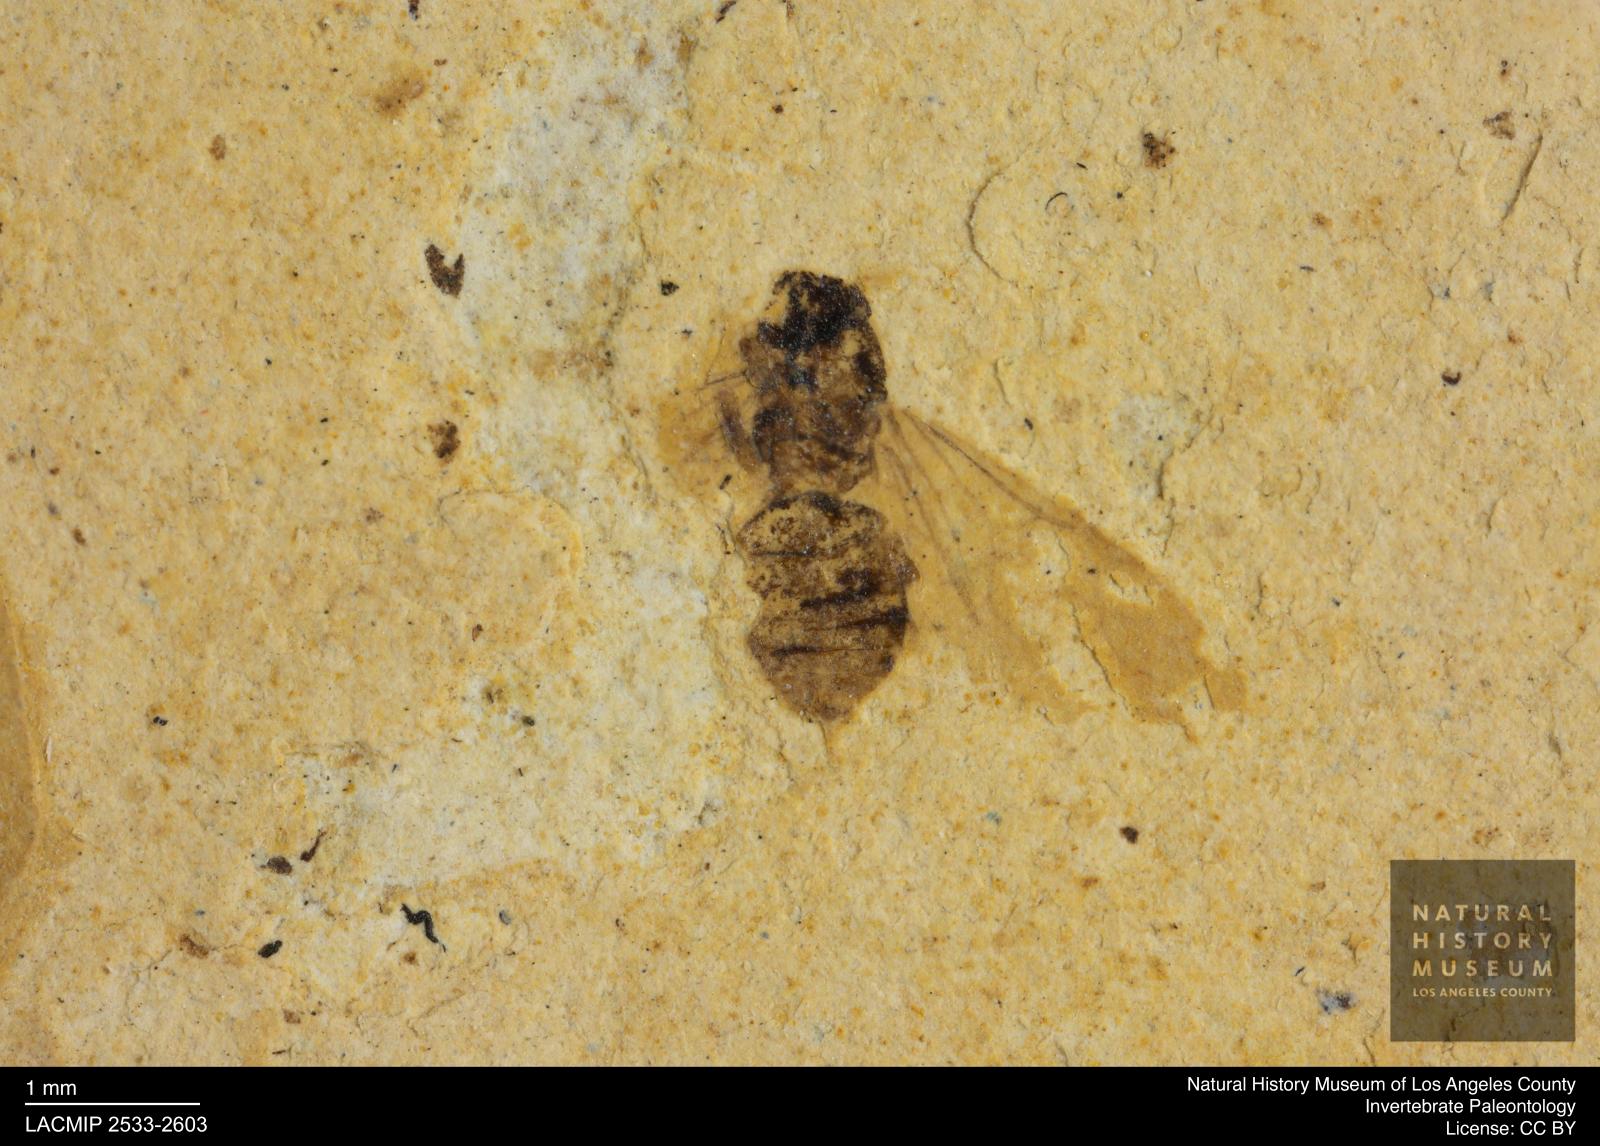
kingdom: Animalia
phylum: Arthropoda
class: Insecta
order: Hymenoptera
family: Formicidae
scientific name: Formicidae
